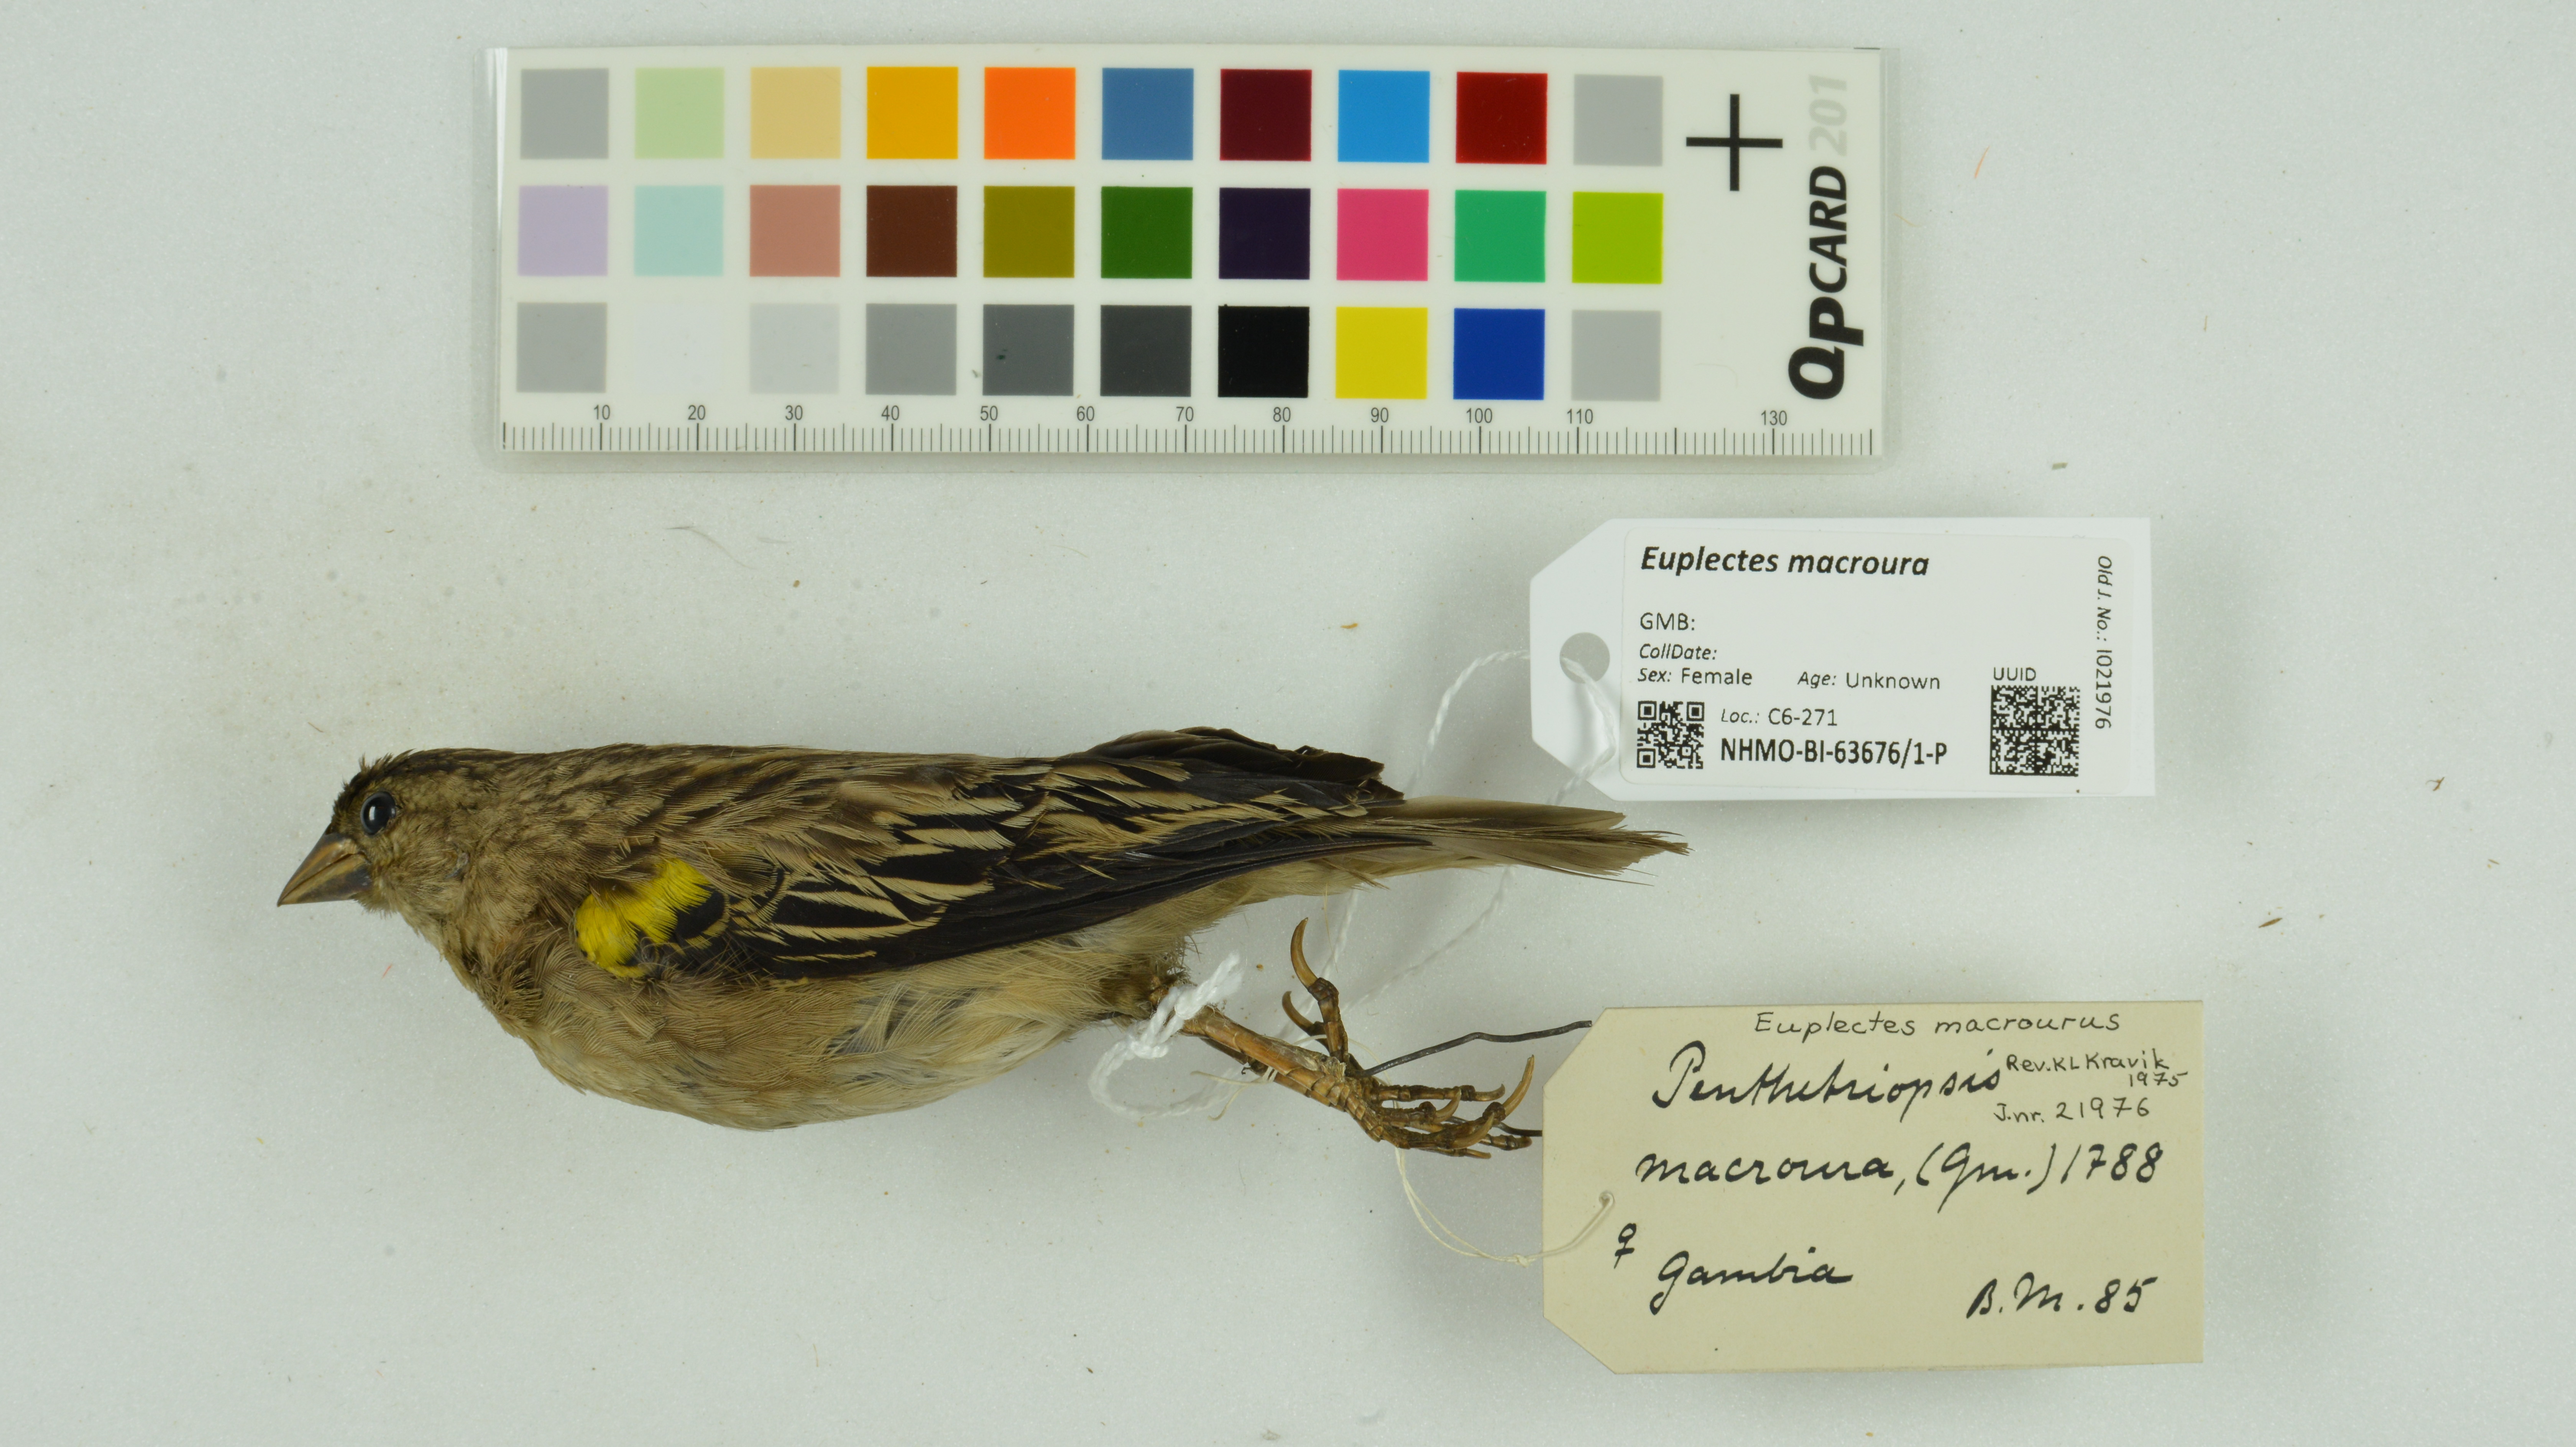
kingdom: Animalia
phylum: Chordata
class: Aves
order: Passeriformes
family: Ploceidae
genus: Euplectes
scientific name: Euplectes macroura
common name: Yellow-mantled widowbird
